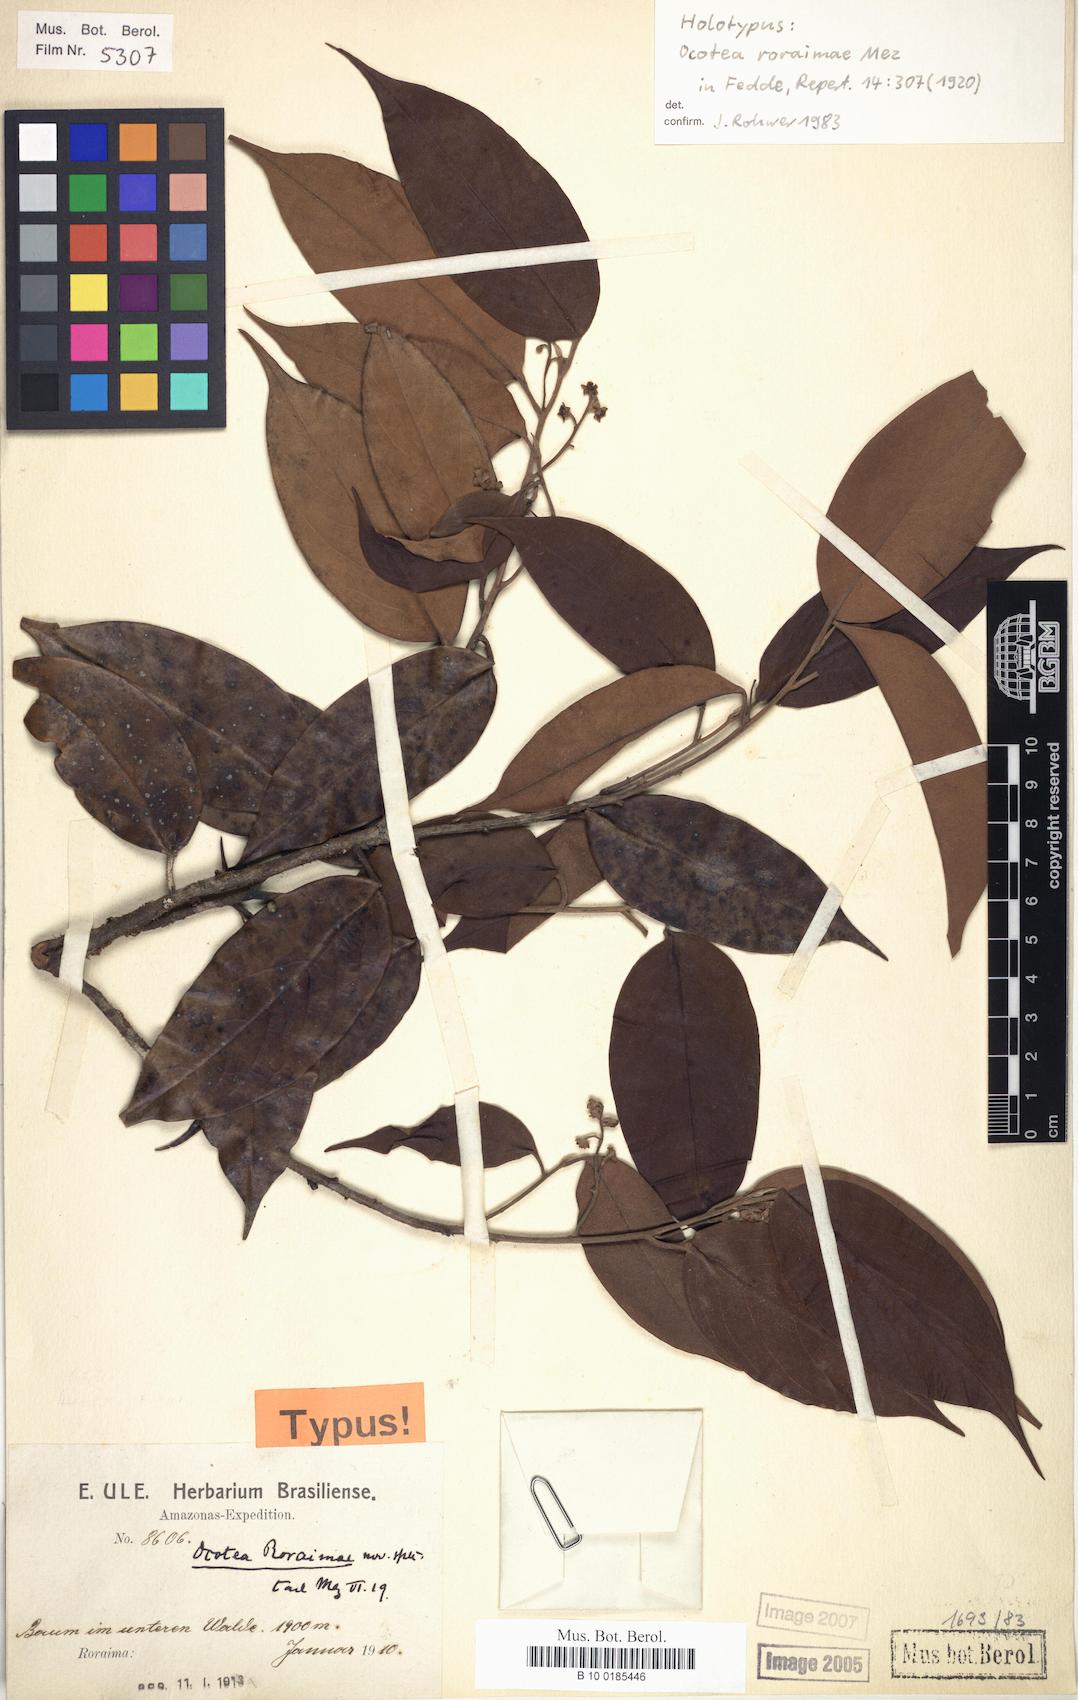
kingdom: Plantae
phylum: Tracheophyta
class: Magnoliopsida
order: Laurales
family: Lauraceae
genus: Ocotea
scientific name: Ocotea aciphylla
